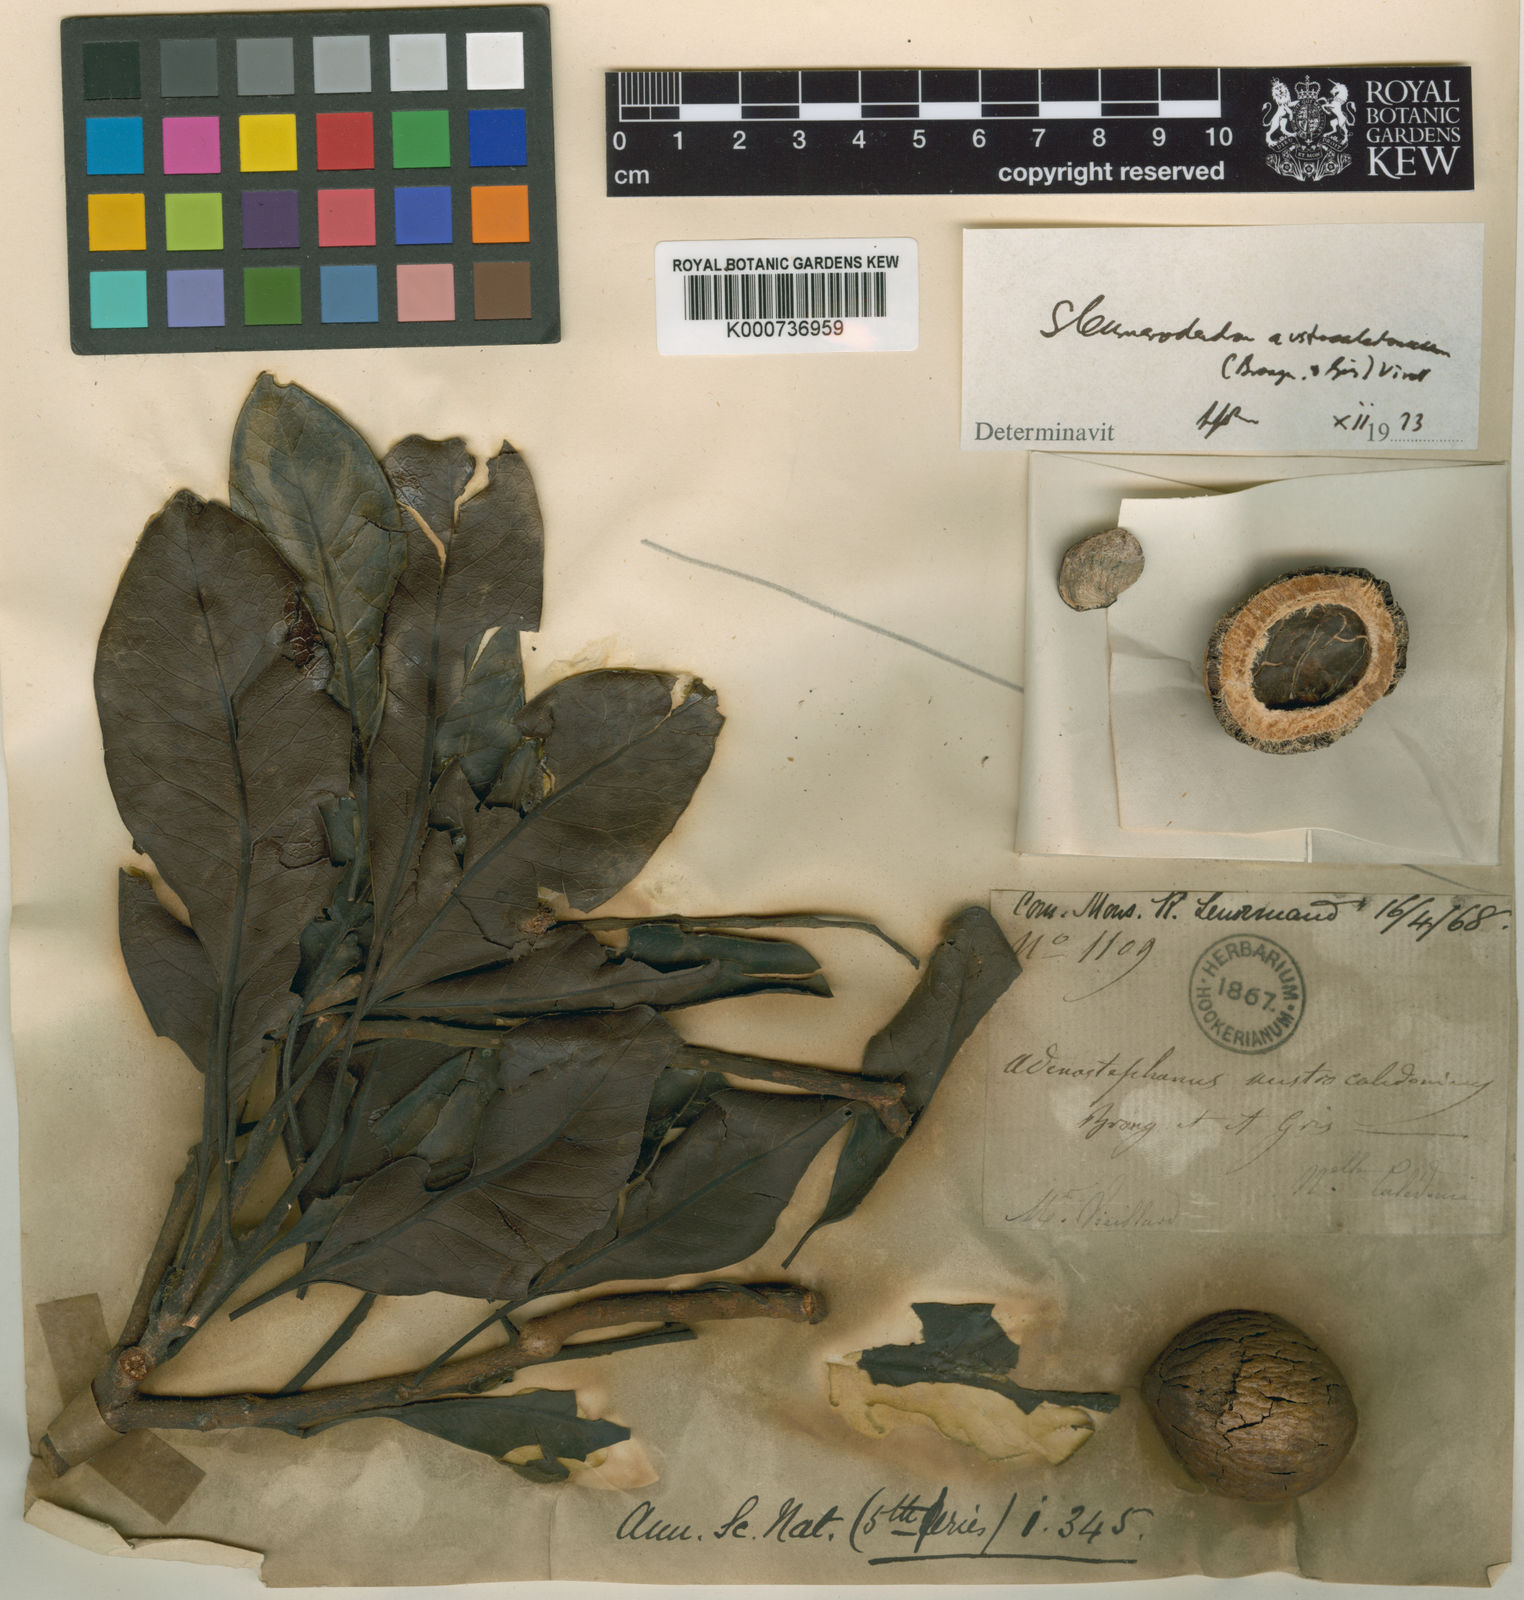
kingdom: Plantae
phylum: Tracheophyta
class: Magnoliopsida
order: Proteales
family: Proteaceae
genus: Sleumerodendron
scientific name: Sleumerodendron austrocaledonicum
